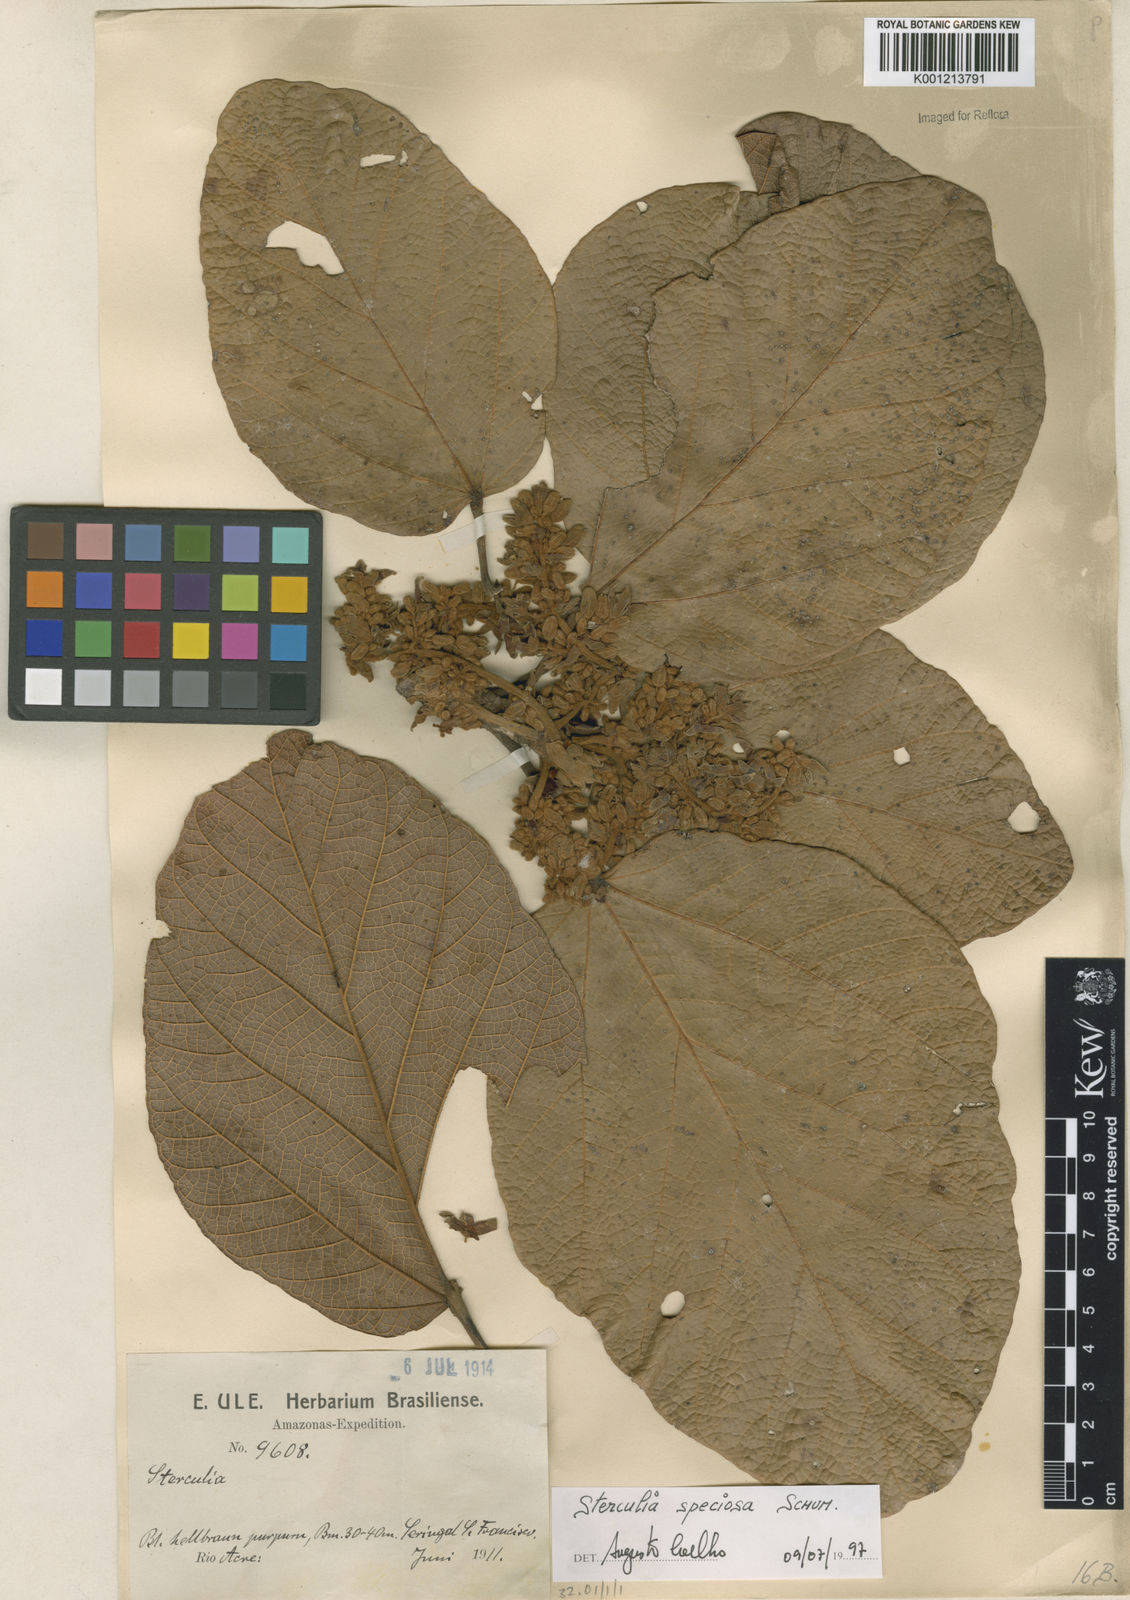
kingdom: Plantae
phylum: Tracheophyta
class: Magnoliopsida
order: Malvales
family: Malvaceae
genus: Sterculia
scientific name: Sterculia speciosa
